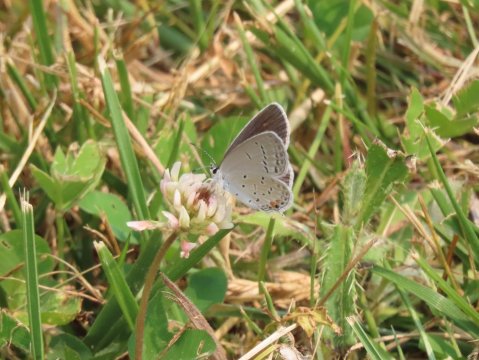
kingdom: Animalia
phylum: Arthropoda
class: Insecta
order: Lepidoptera
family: Lycaenidae
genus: Elkalyce
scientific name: Elkalyce comyntas
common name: Eastern Tailed-Blue
